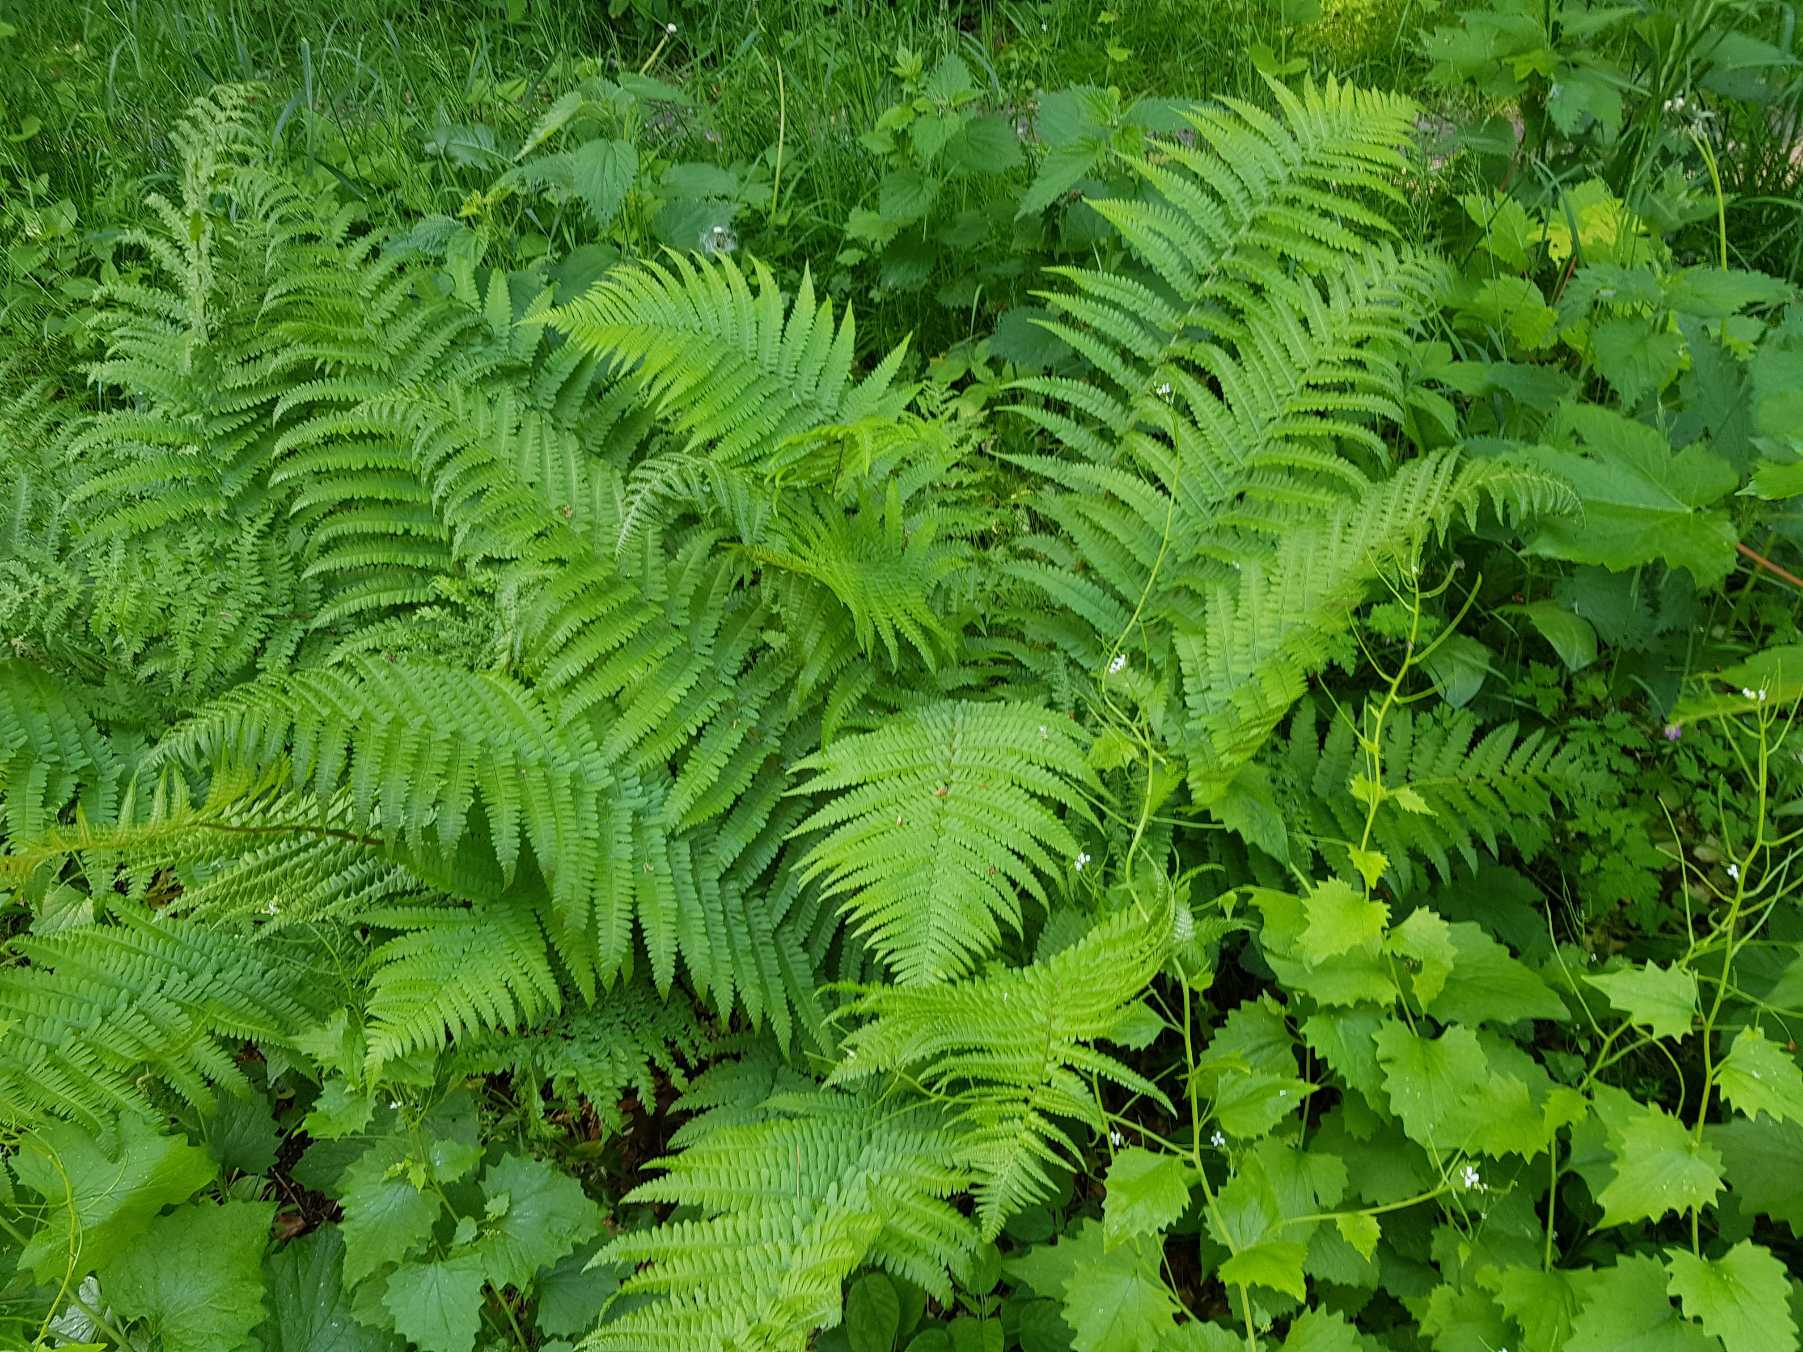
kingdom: Plantae
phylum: Tracheophyta
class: Polypodiopsida
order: Polypodiales
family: Dryopteridaceae
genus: Dryopteris
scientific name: Dryopteris filix-mas
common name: Almindelig mangeløv
